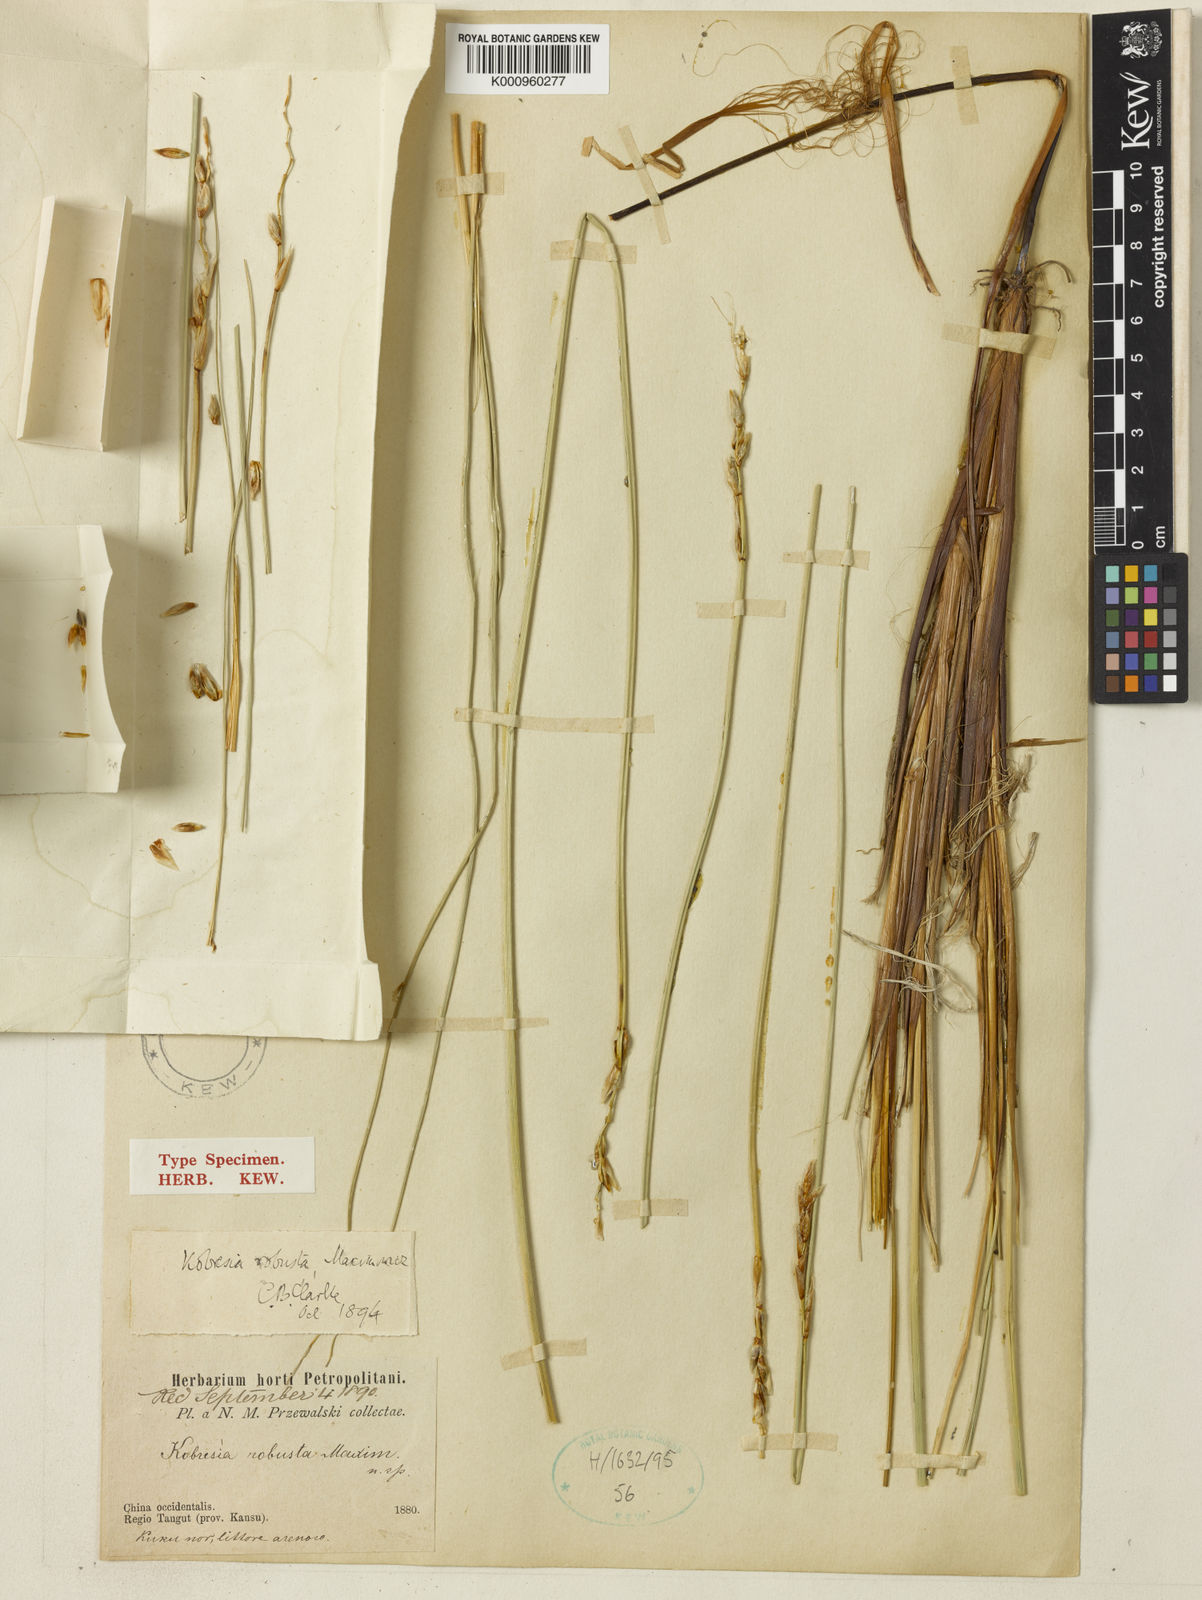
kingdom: Plantae
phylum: Tracheophyta
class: Liliopsida
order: Poales
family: Cyperaceae
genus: Carex
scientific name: Carex sargentiana
